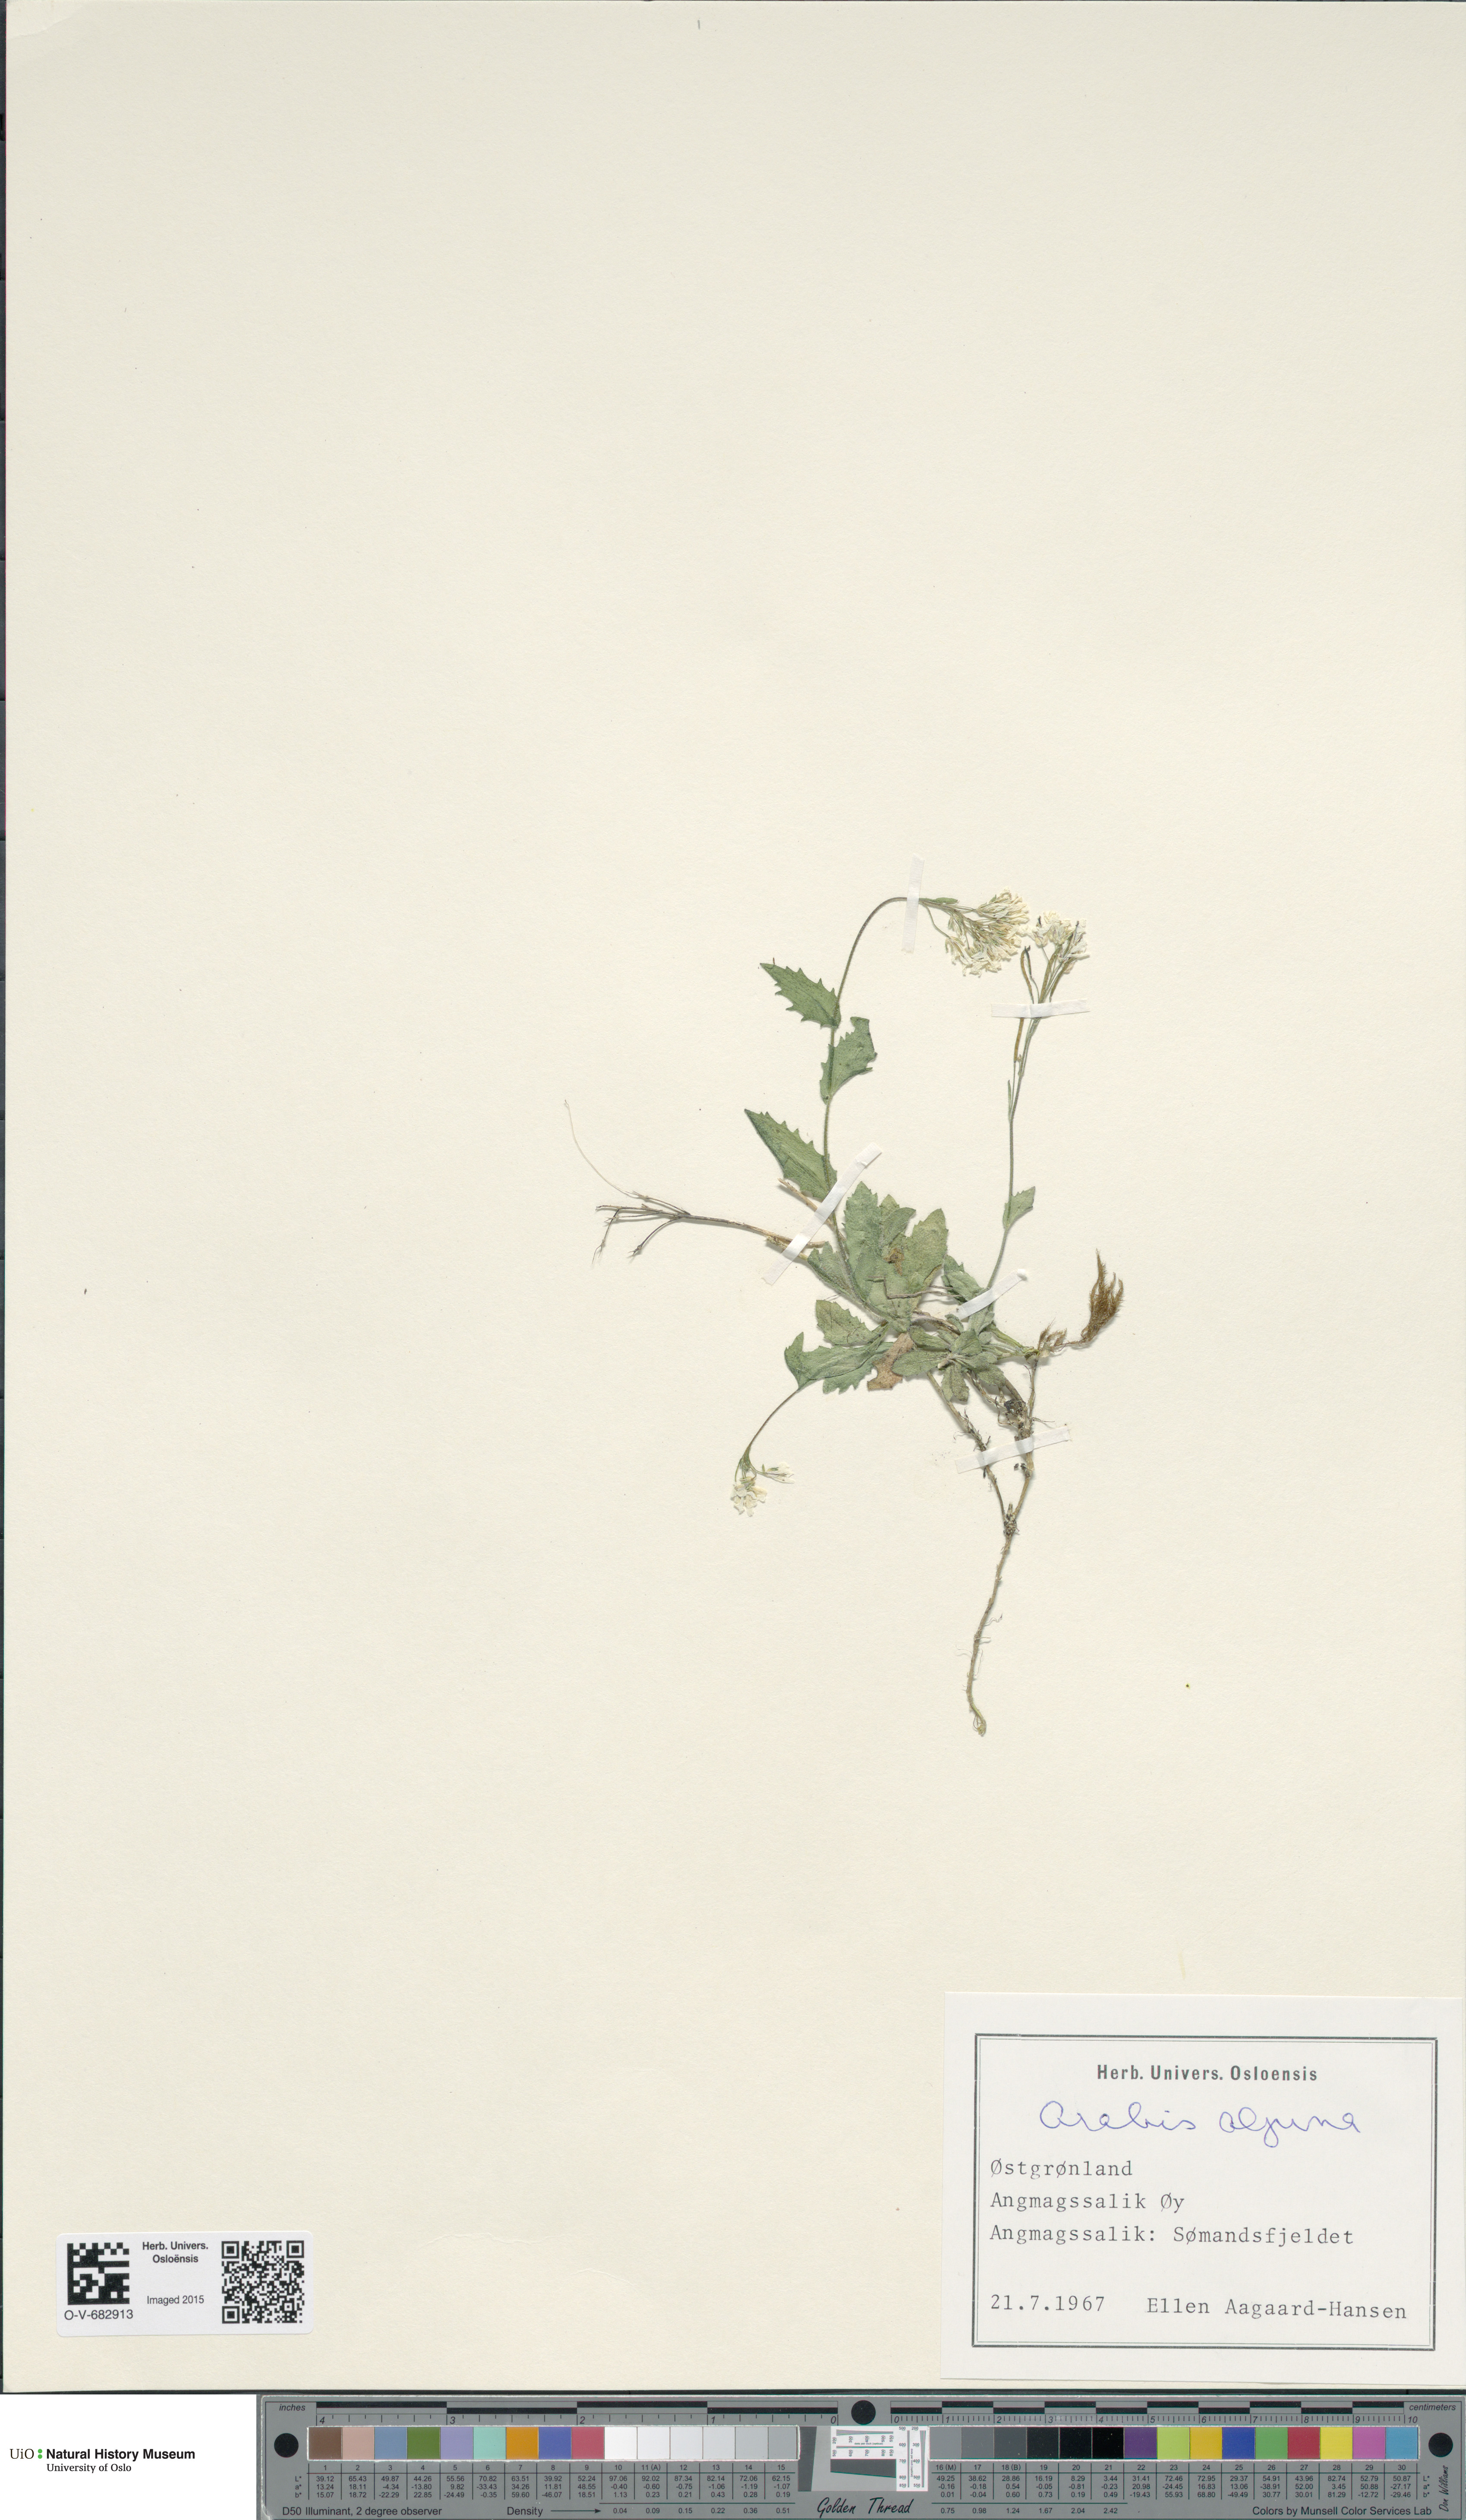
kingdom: Plantae
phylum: Tracheophyta
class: Magnoliopsida
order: Brassicales
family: Brassicaceae
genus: Arabis
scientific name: Arabis alpina
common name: Alpine rock-cress
